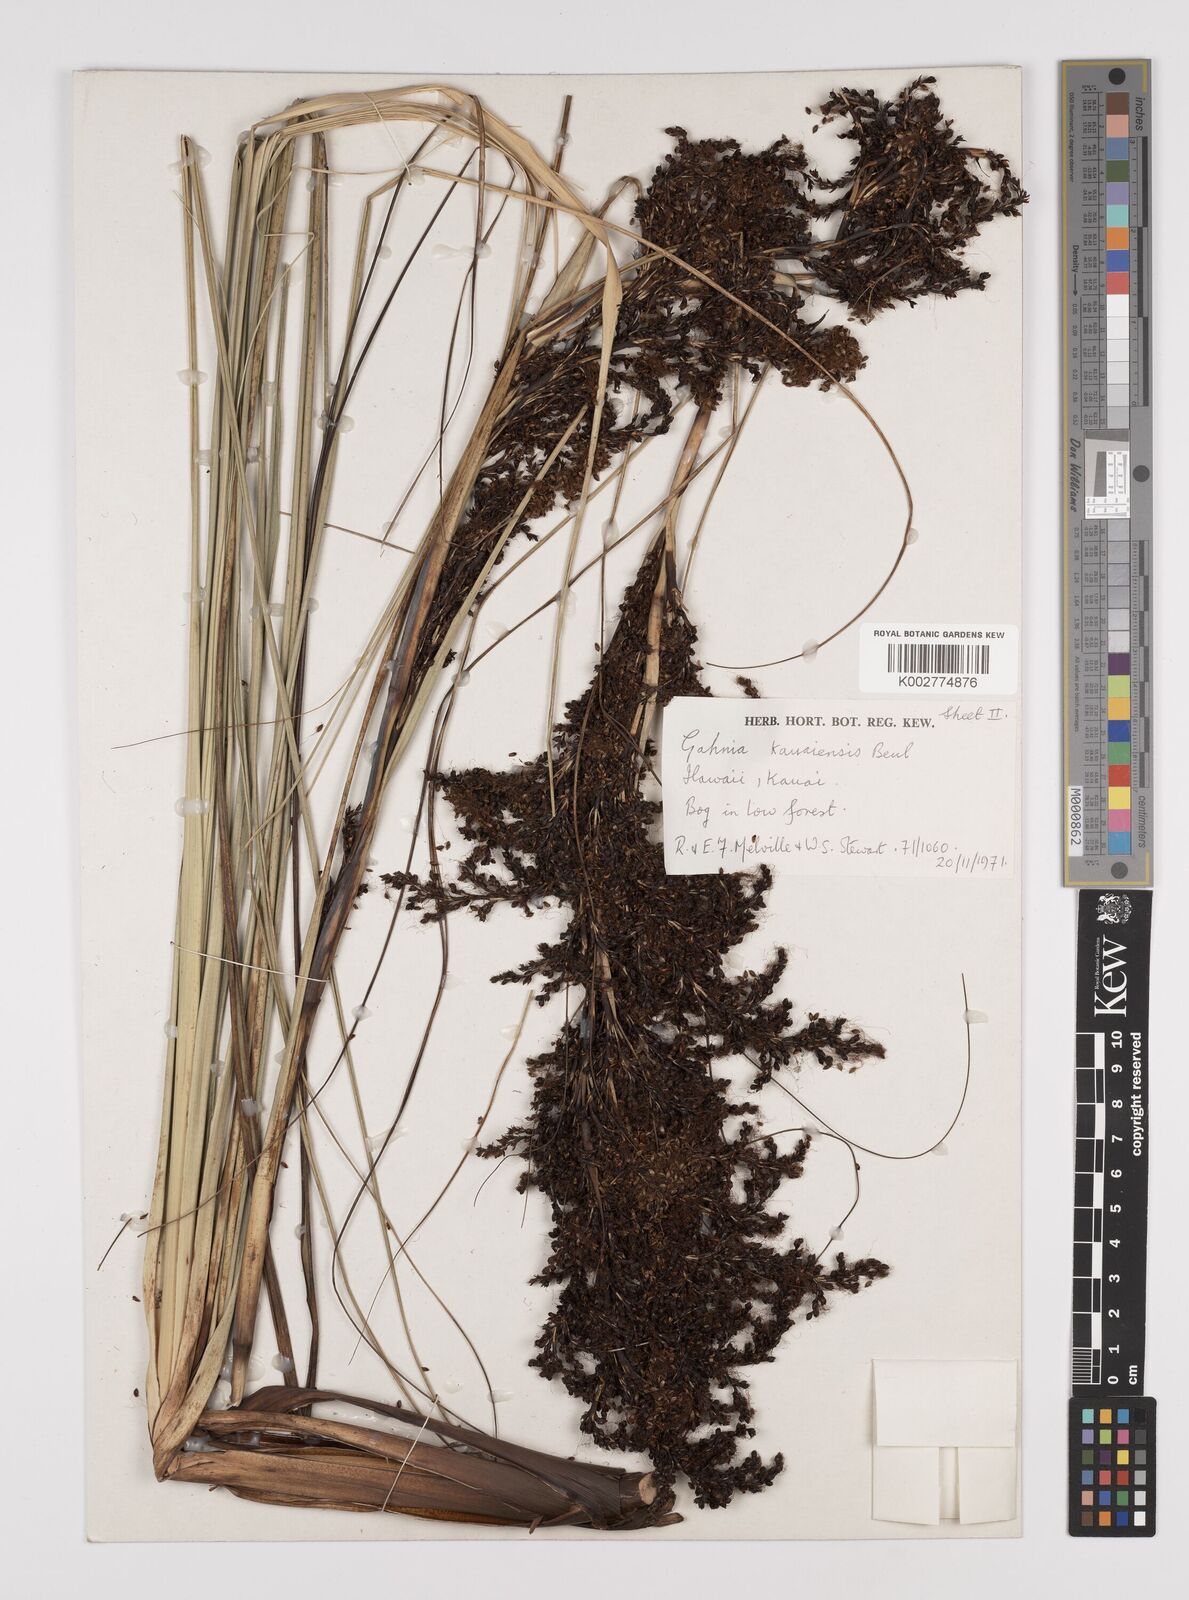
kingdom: Plantae
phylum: Tracheophyta
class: Liliopsida
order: Poales
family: Cyperaceae
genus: Gahnia
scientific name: Gahnia vitiensis
